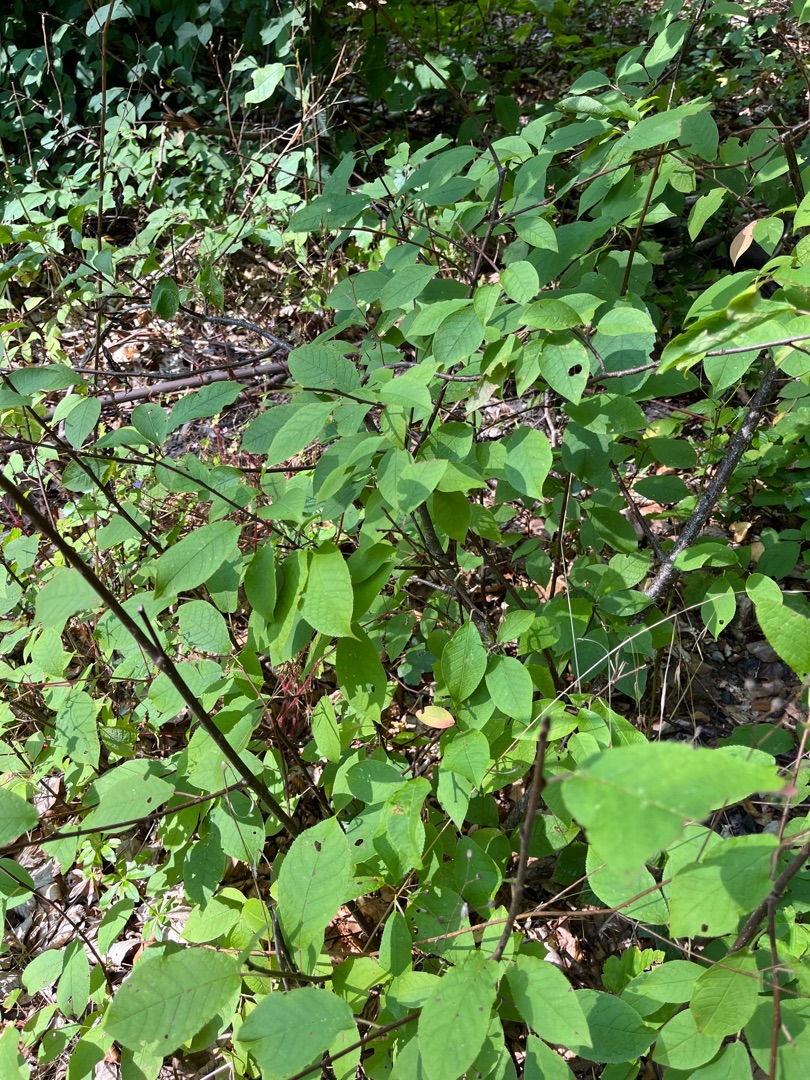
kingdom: Plantae
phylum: Tracheophyta
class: Magnoliopsida
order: Rosales
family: Rosaceae
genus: Prunus
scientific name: Prunus padus
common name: Almindelig hæg
